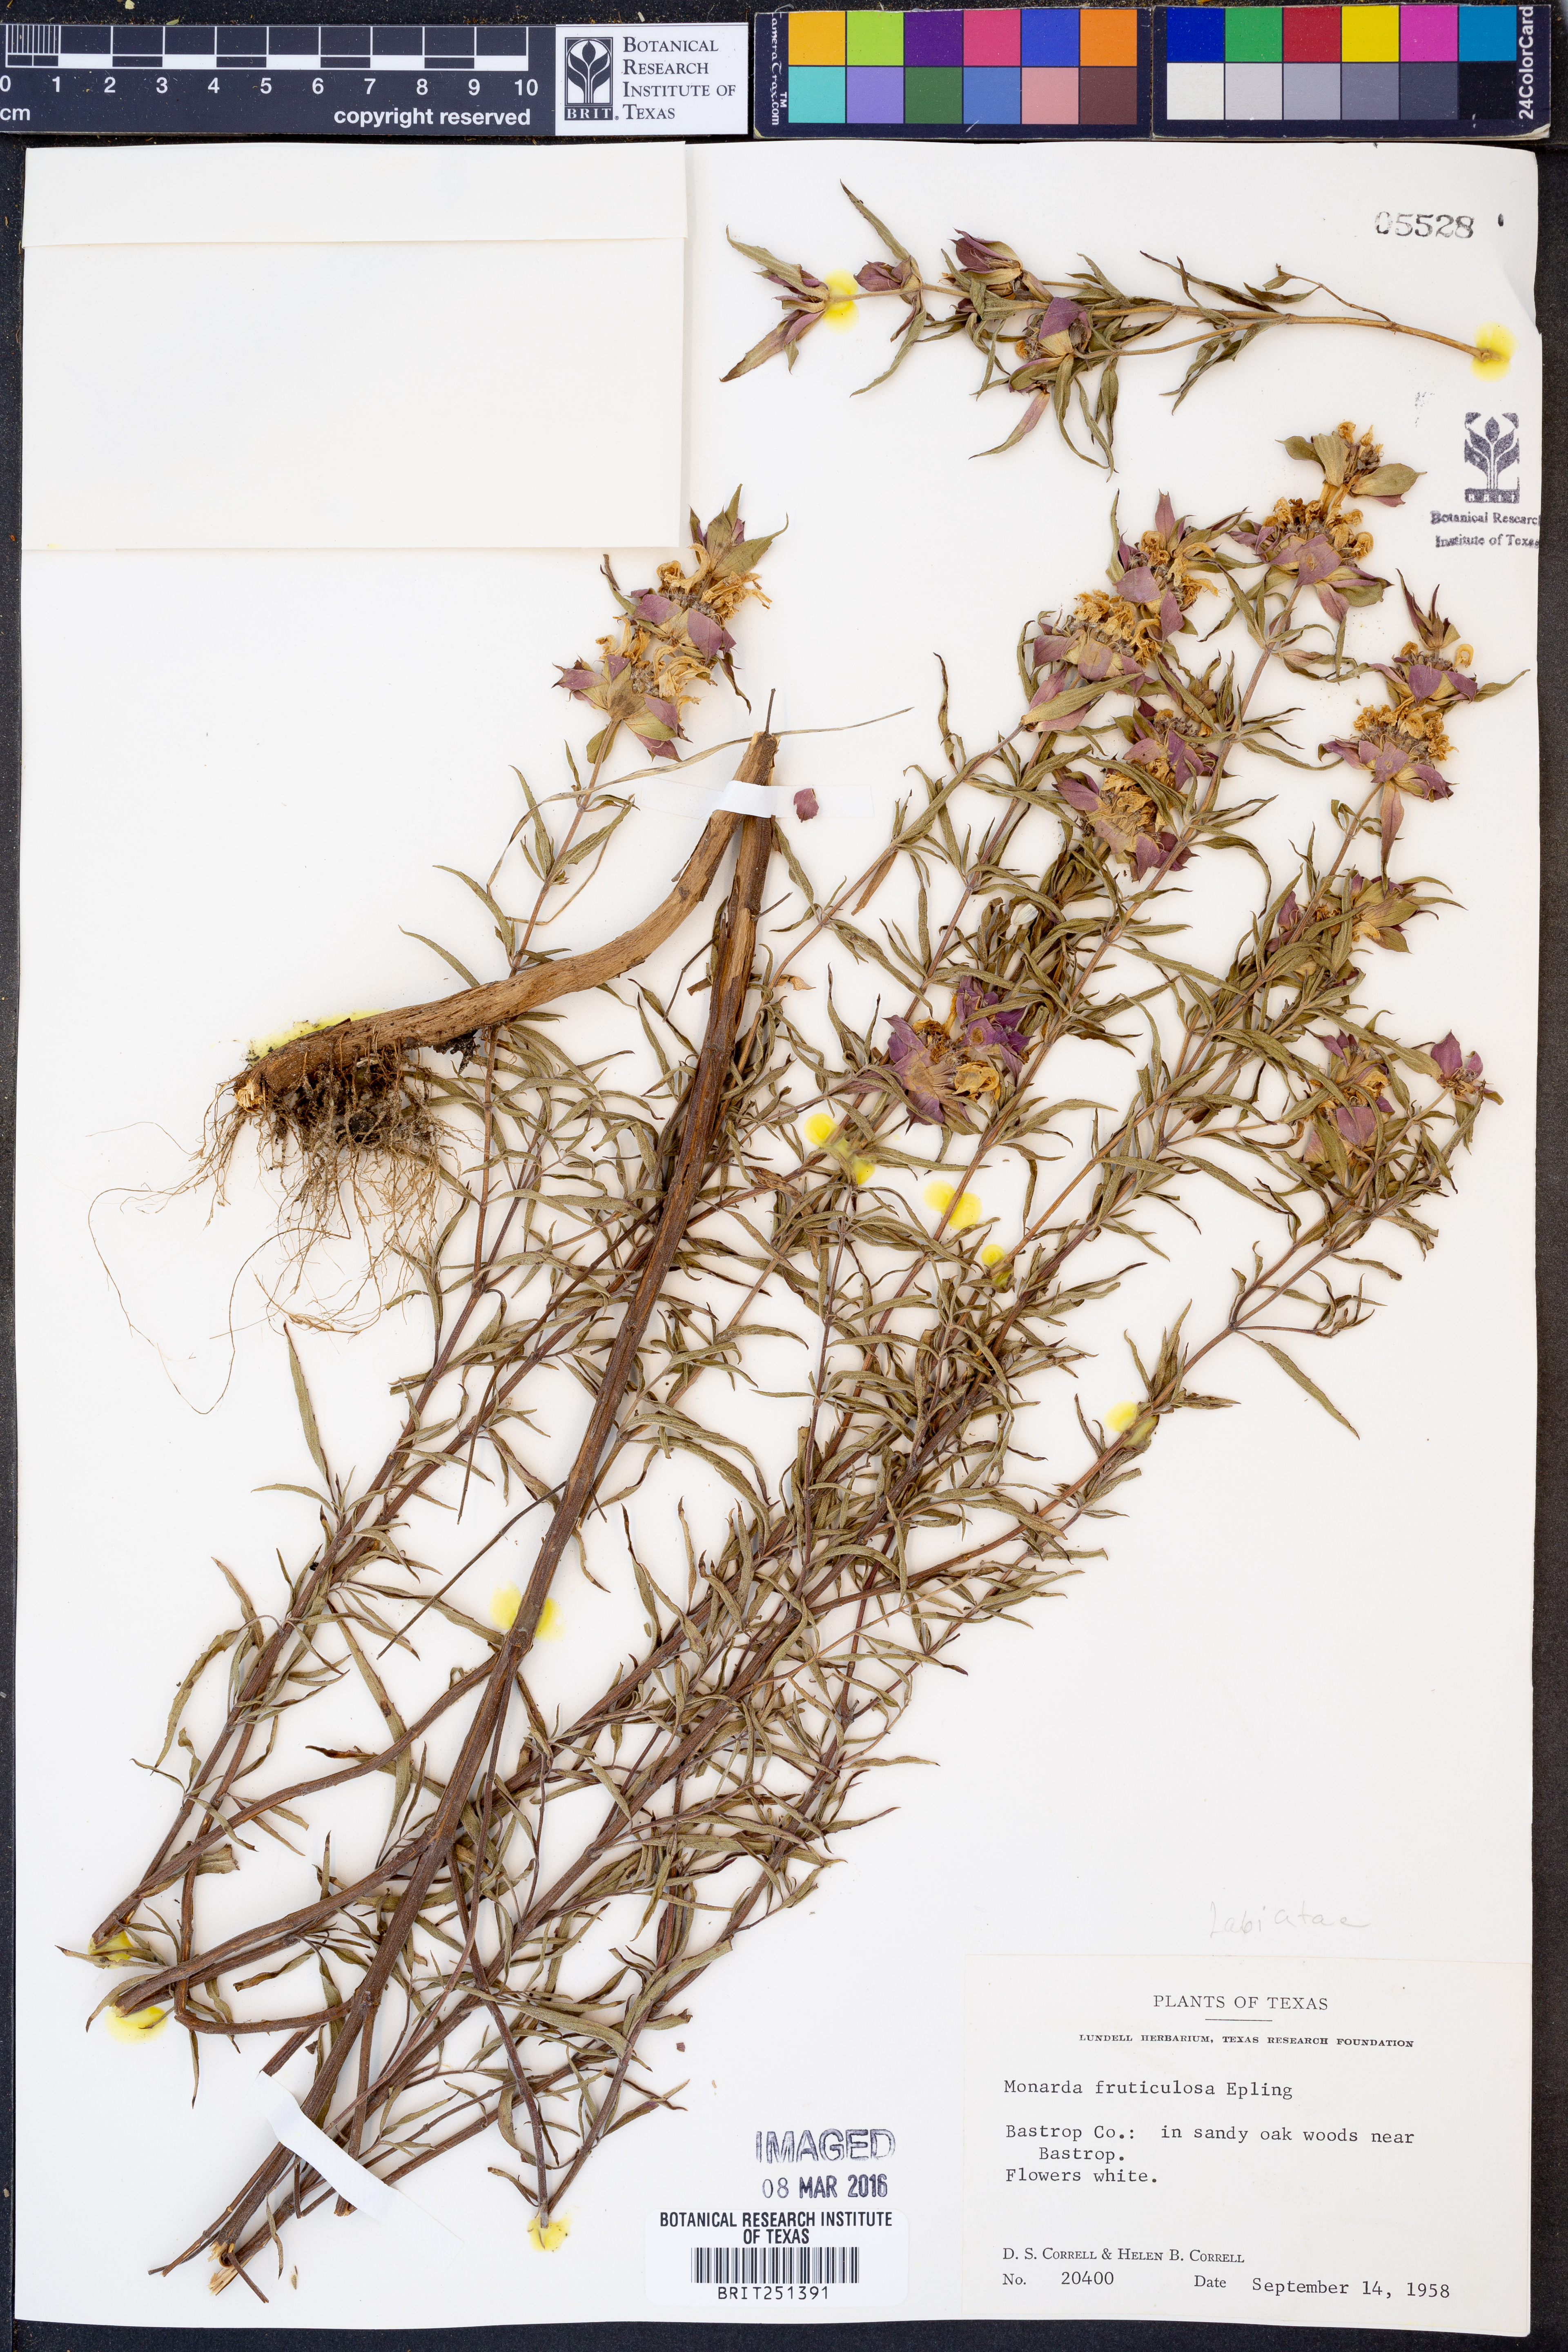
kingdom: Plantae
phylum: Tracheophyta
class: Magnoliopsida
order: Lamiales
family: Lamiaceae
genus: Monarda
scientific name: Monarda fruticulosa
